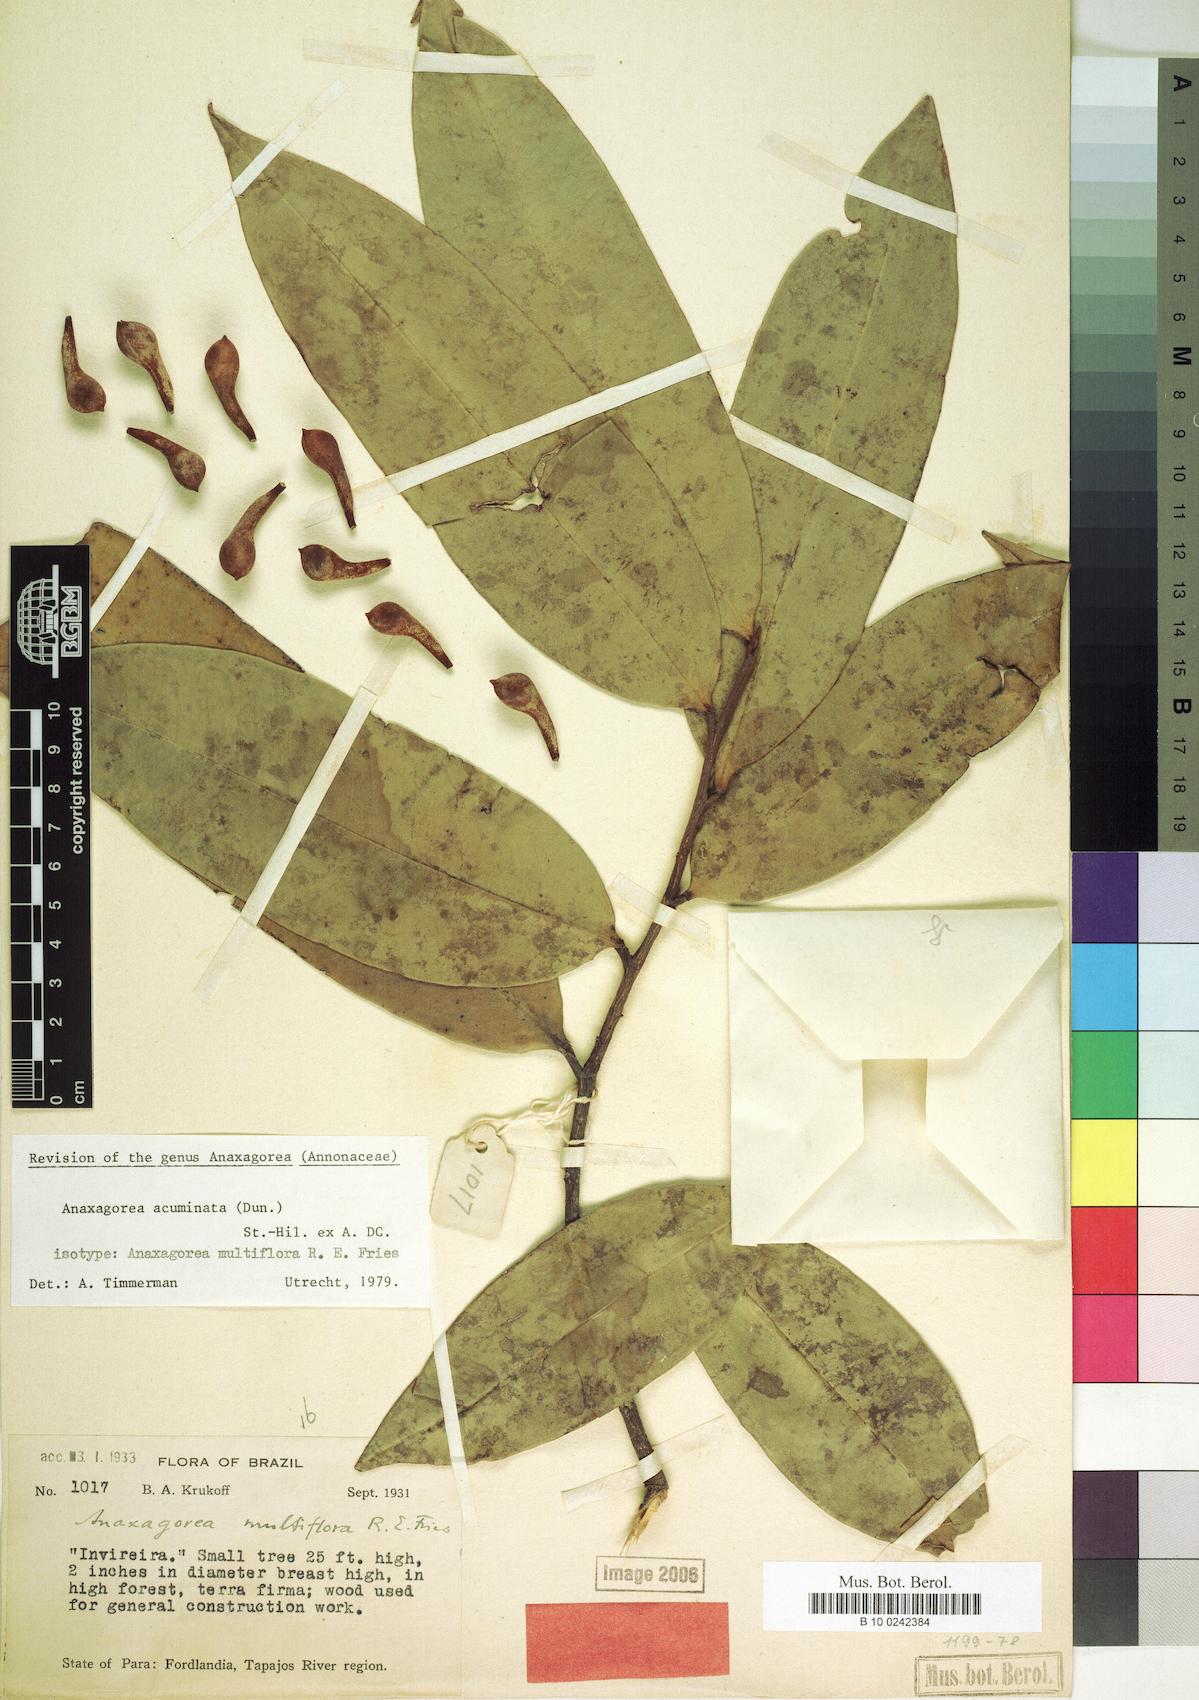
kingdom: Plantae
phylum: Tracheophyta
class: Magnoliopsida
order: Magnoliales
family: Annonaceae
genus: Anaxagorea
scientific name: Anaxagorea acuminata
